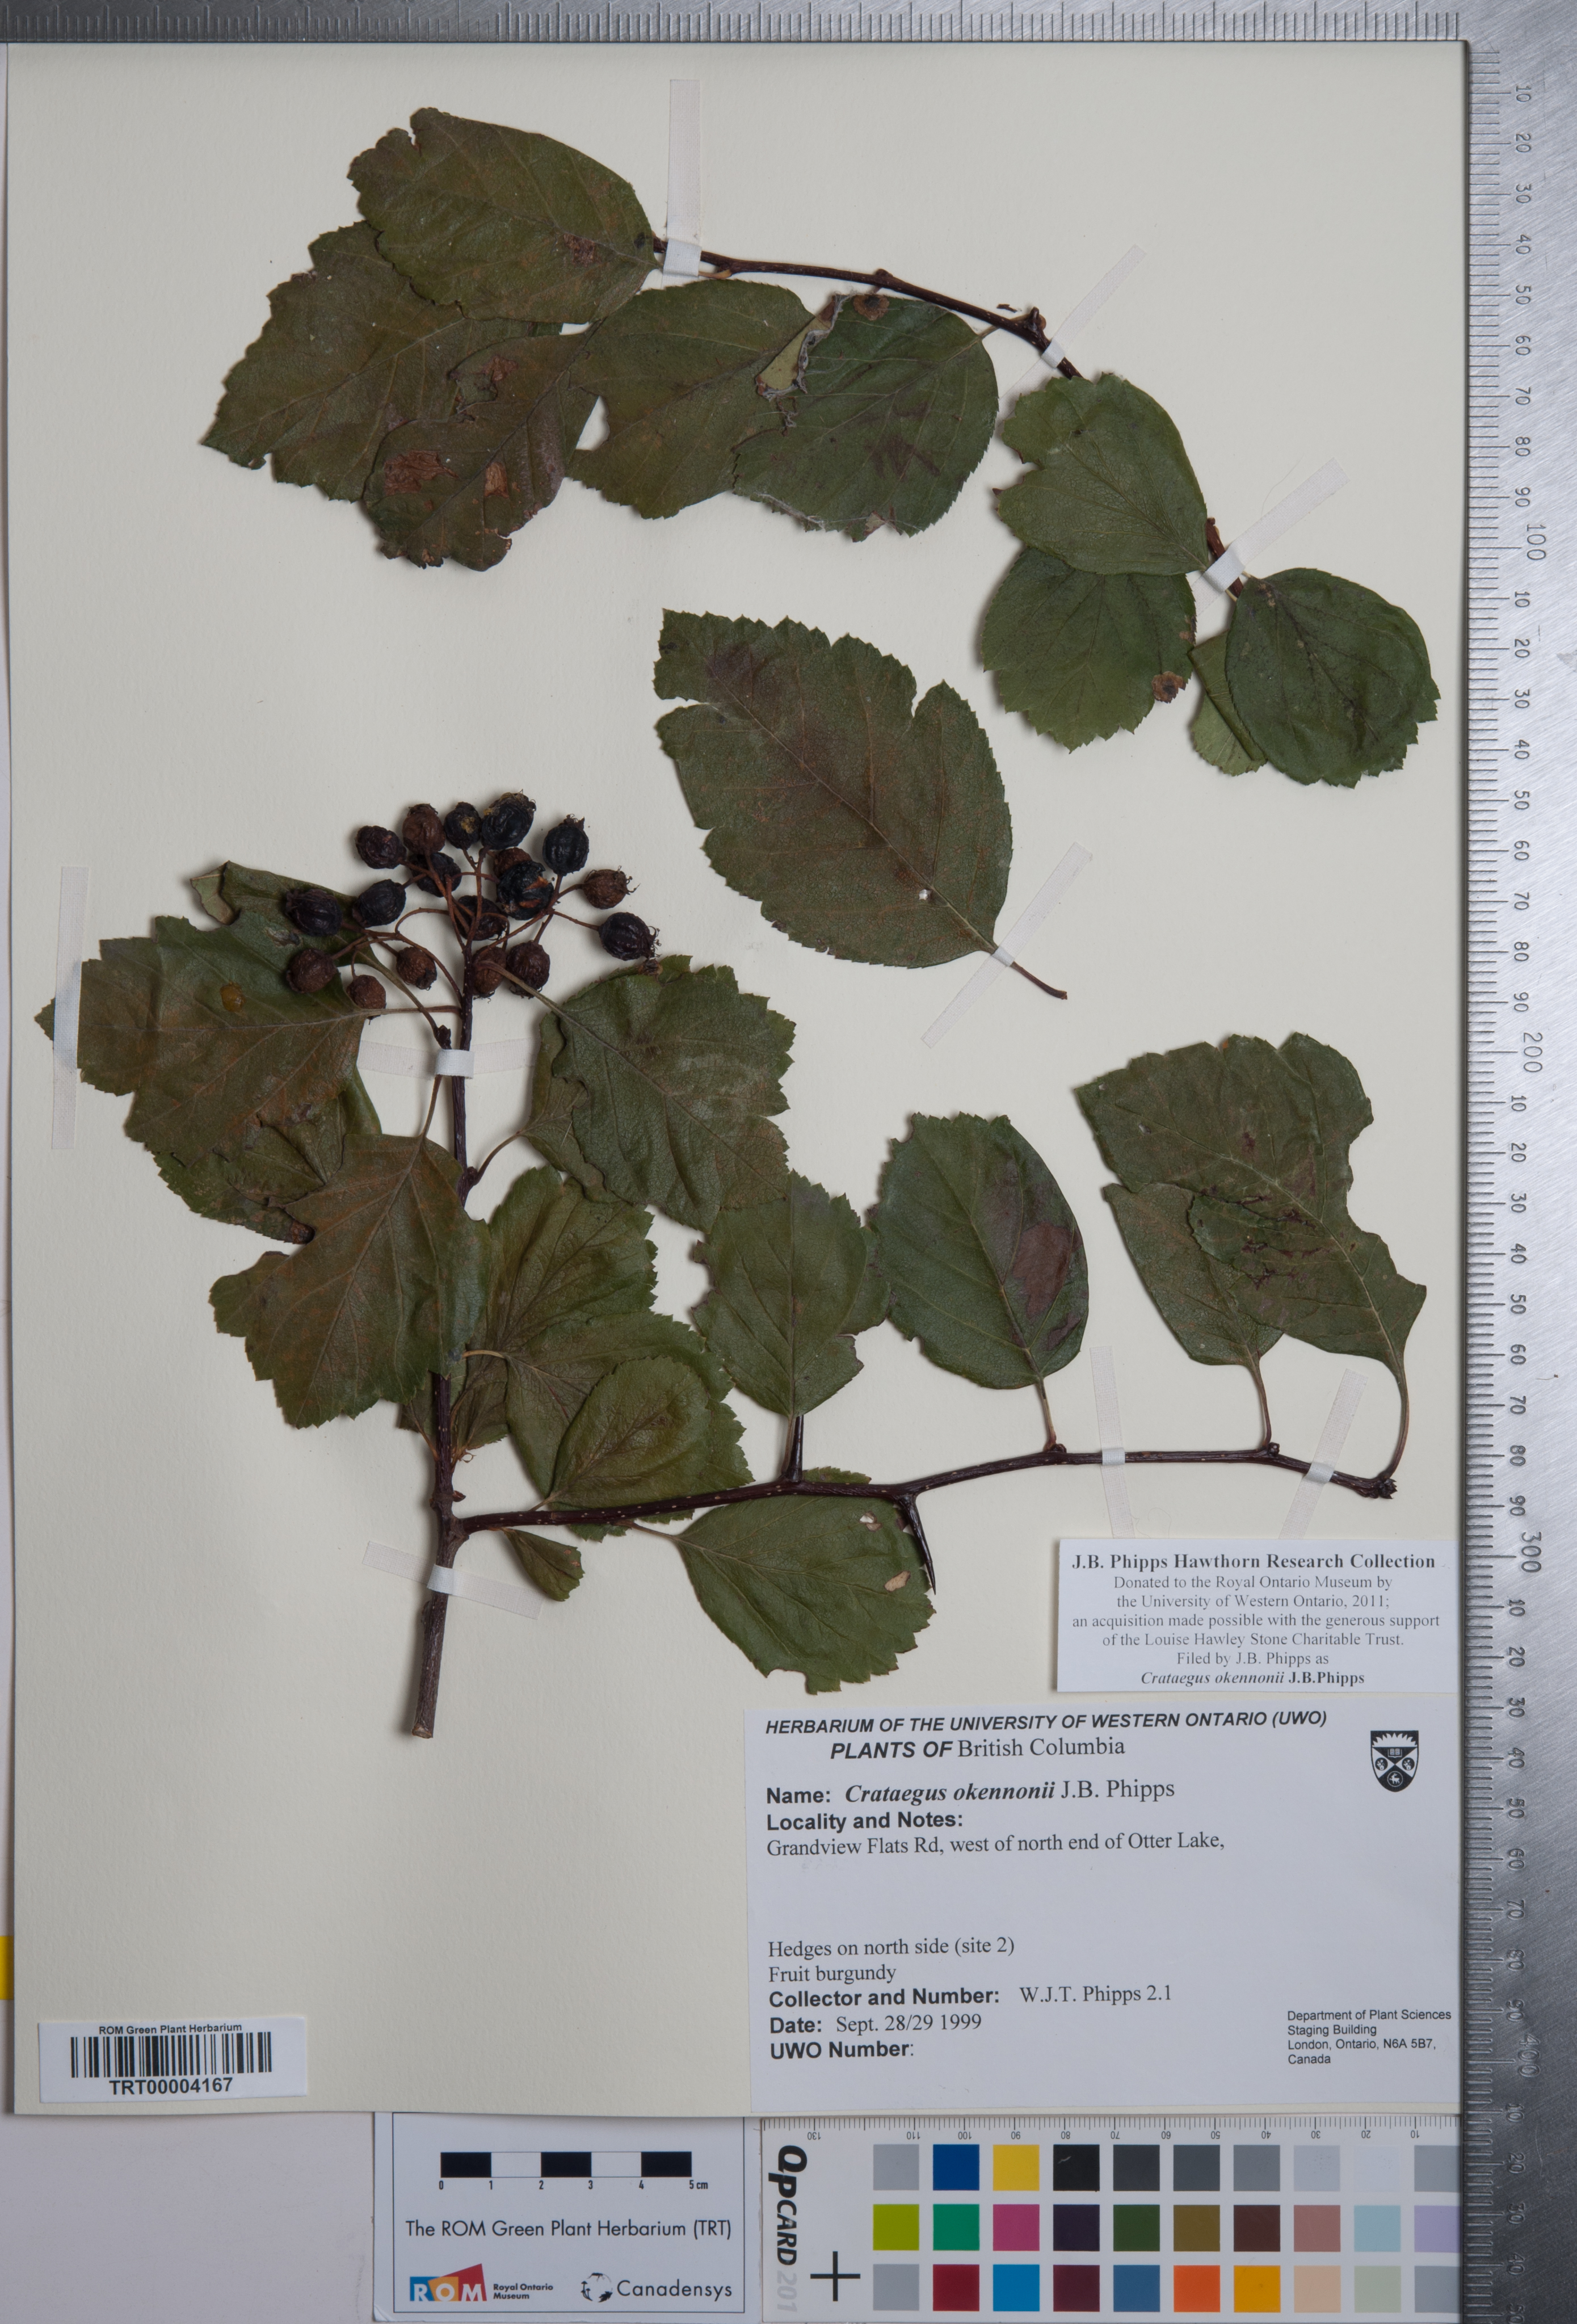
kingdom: Plantae
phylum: Tracheophyta
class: Magnoliopsida
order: Rosales
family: Rosaceae
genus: Crataegus
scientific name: Crataegus okennonii
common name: O'kennon's hawthorn
